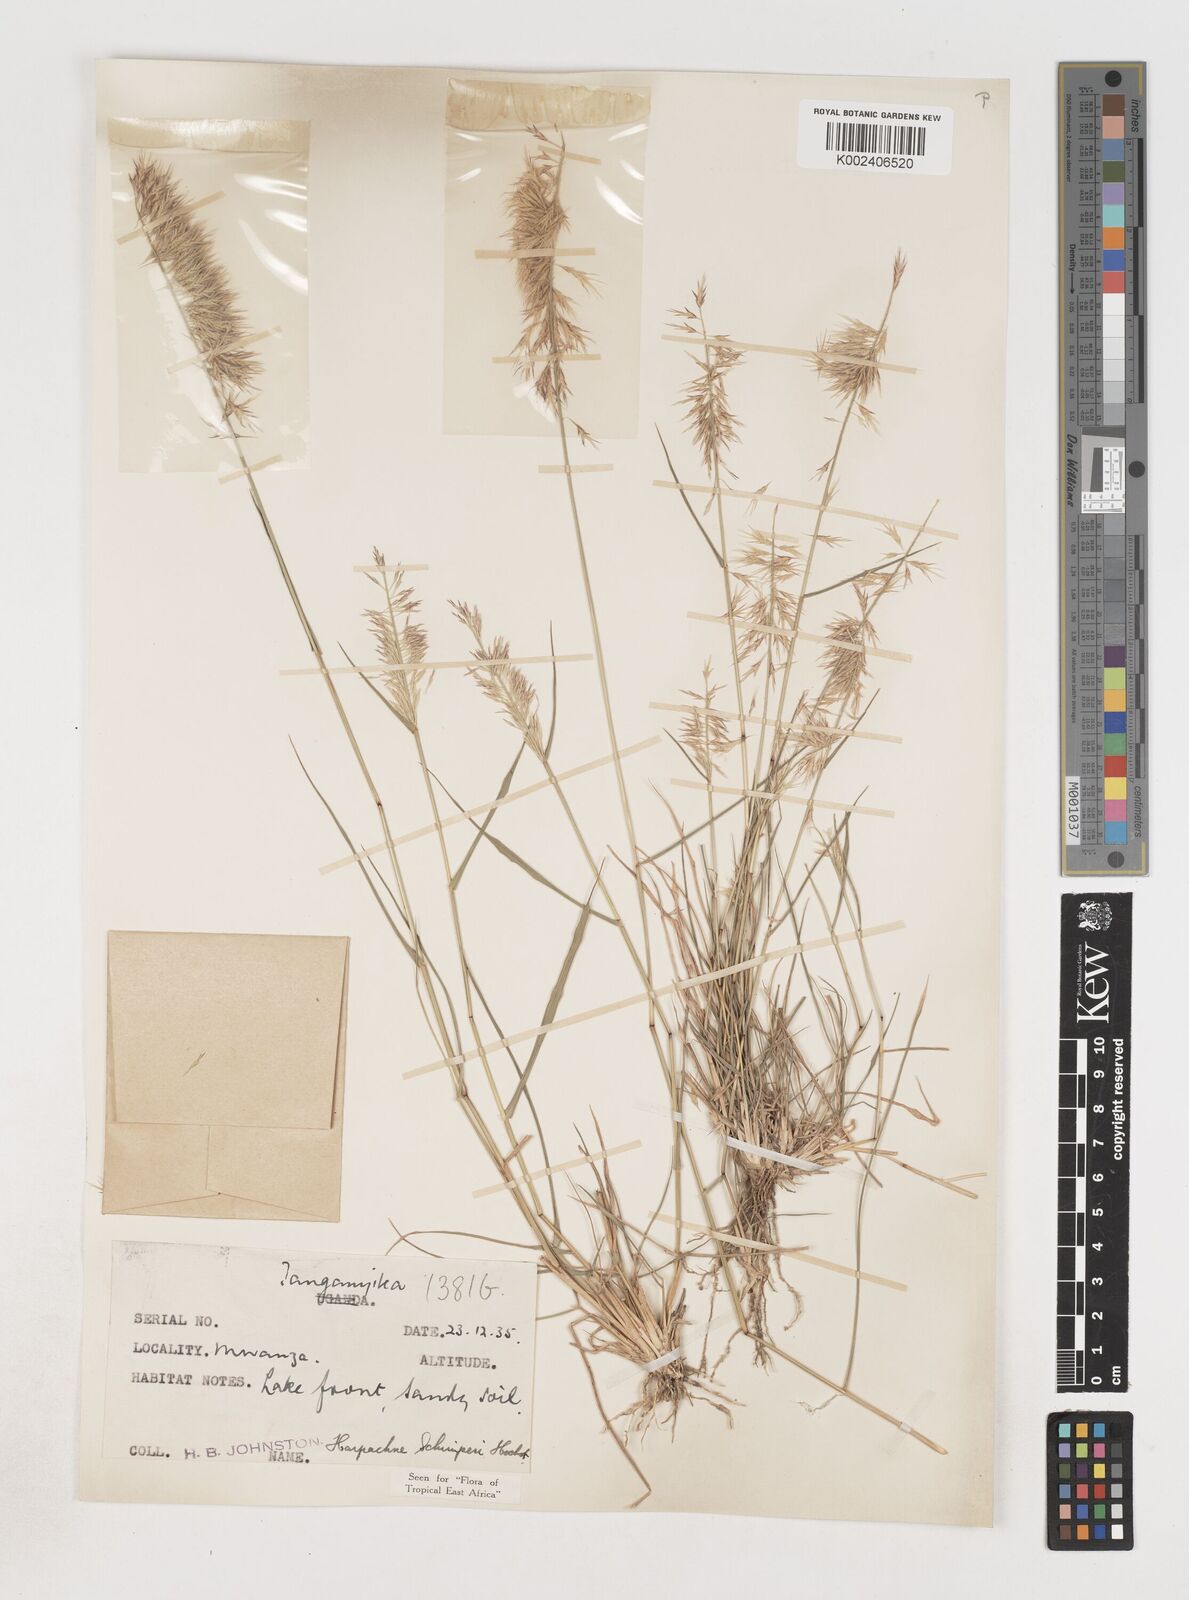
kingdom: Plantae
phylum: Tracheophyta
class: Liliopsida
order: Poales
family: Poaceae
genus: Harpachne
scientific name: Harpachne schimperi
